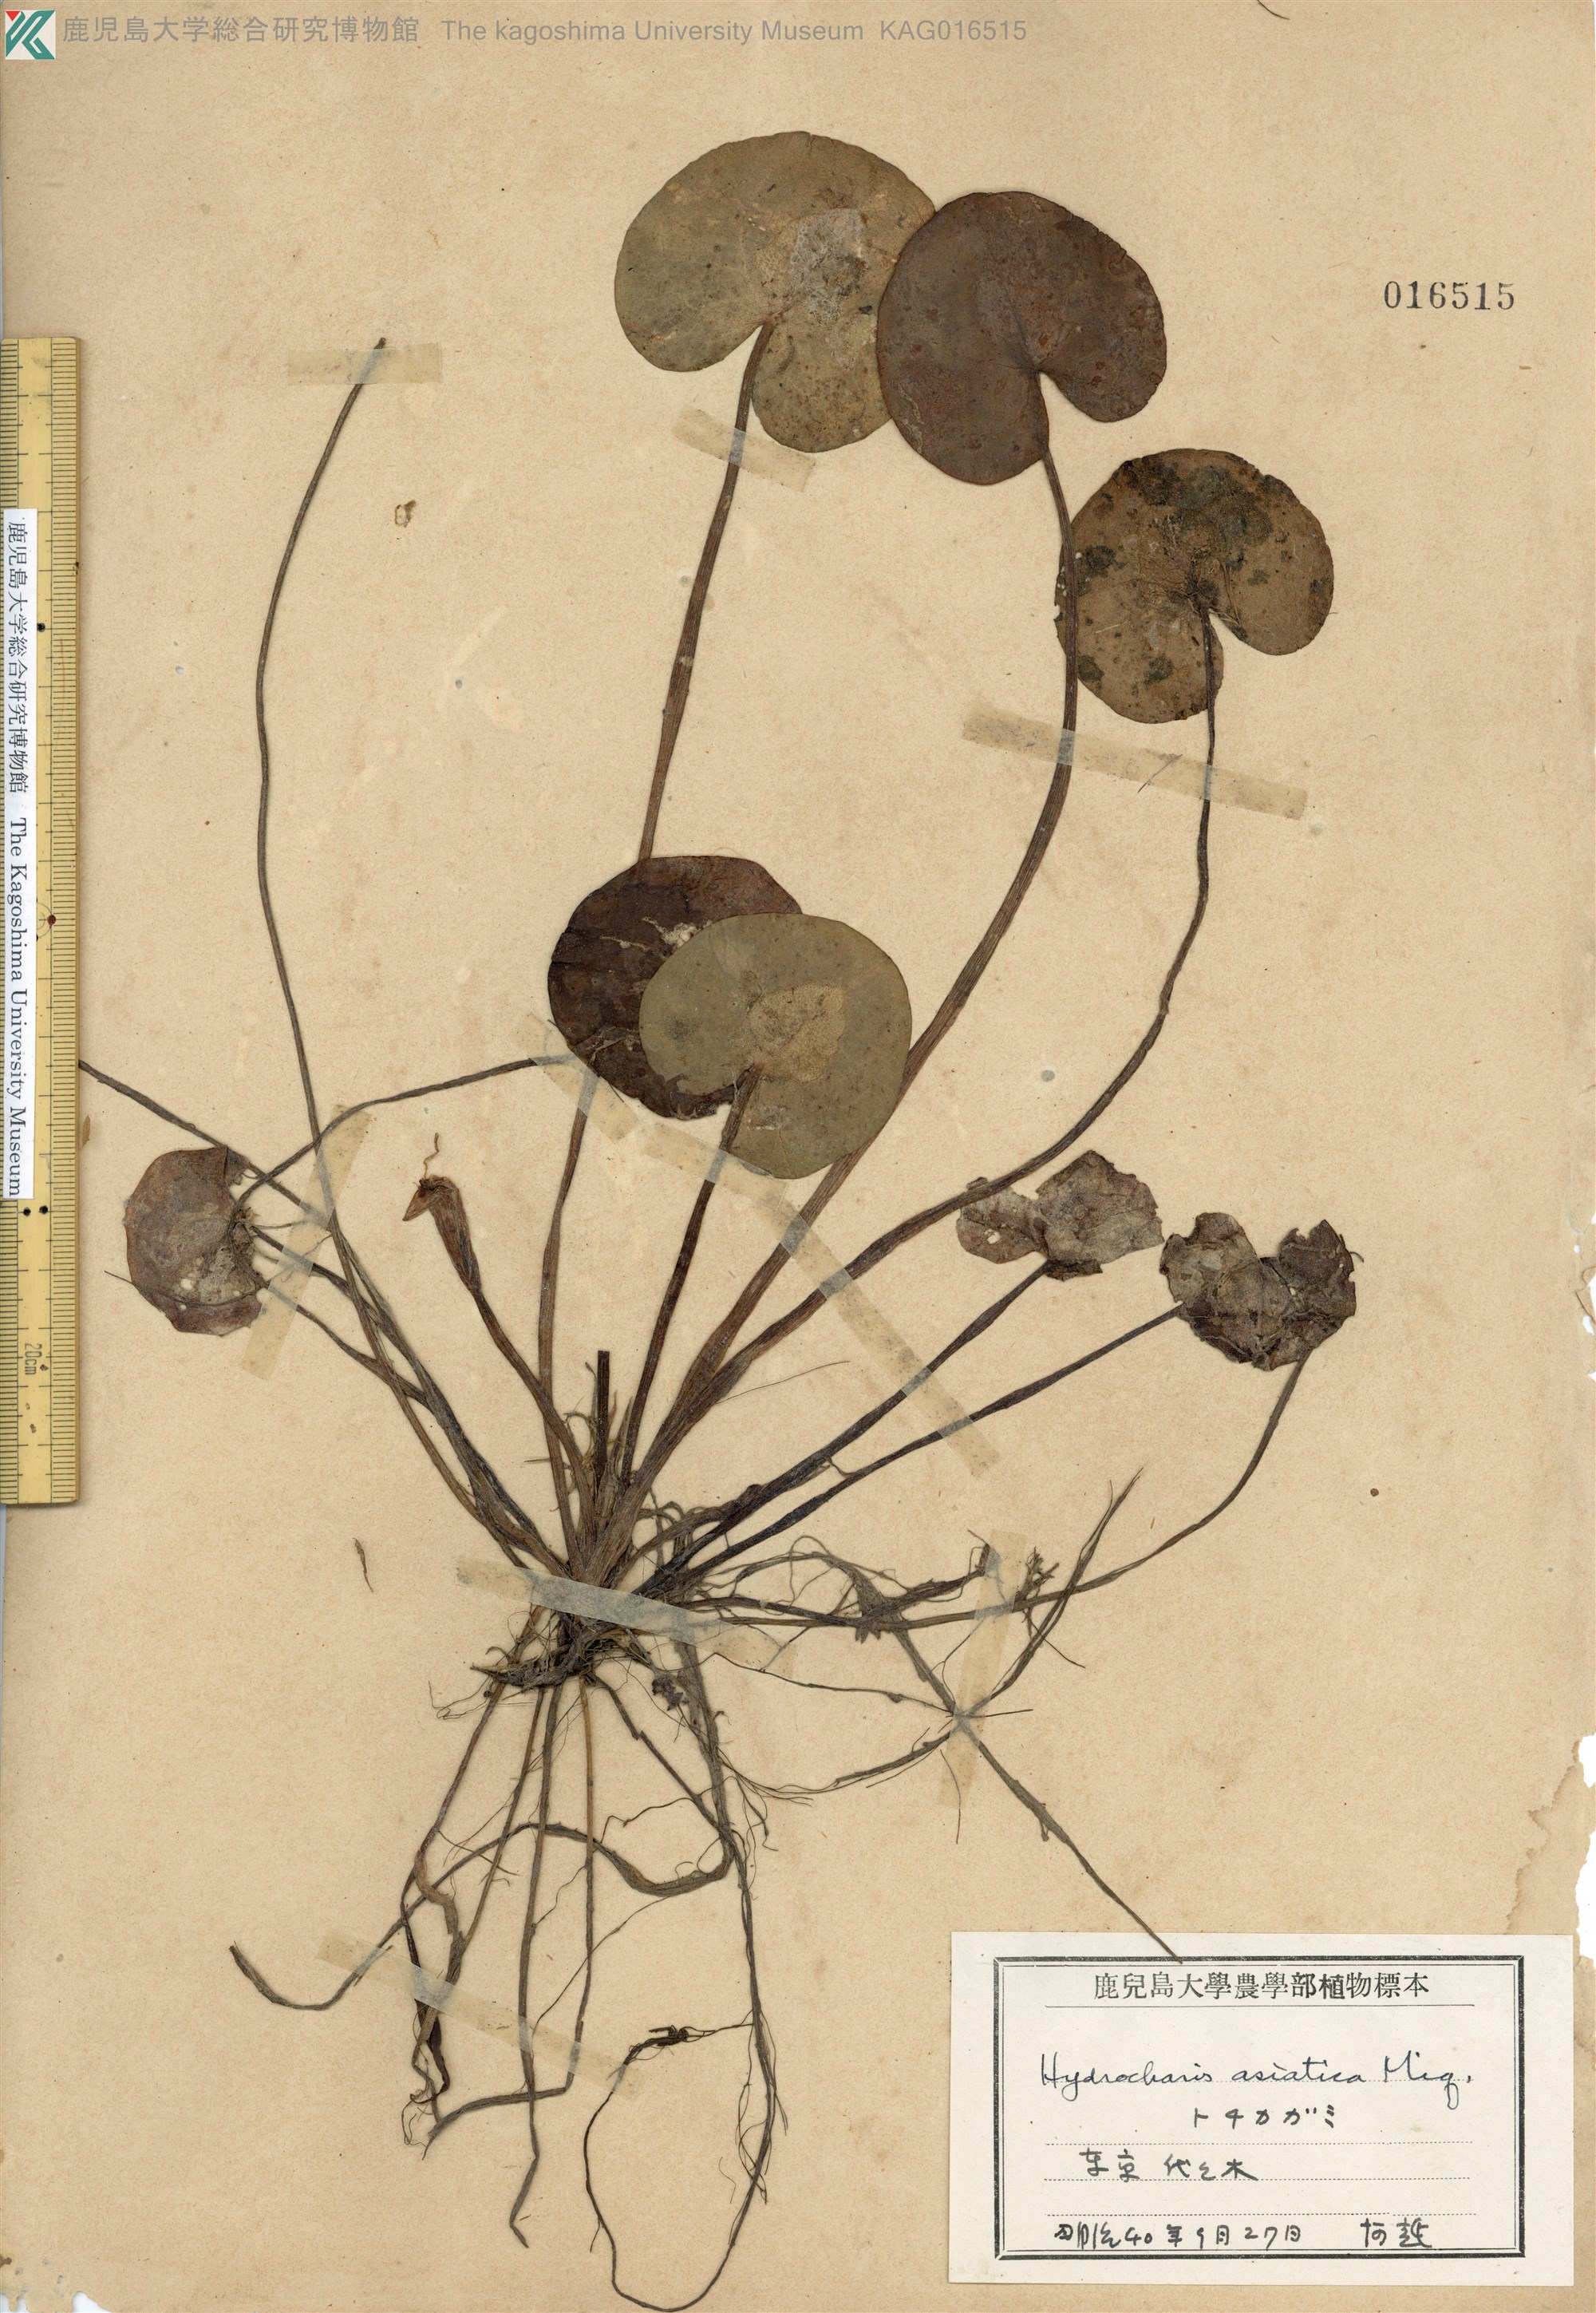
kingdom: Plantae
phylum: Tracheophyta
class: Liliopsida
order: Alismatales
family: Hydrocharitaceae
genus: Hydrocharis
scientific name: Hydrocharis dubia
